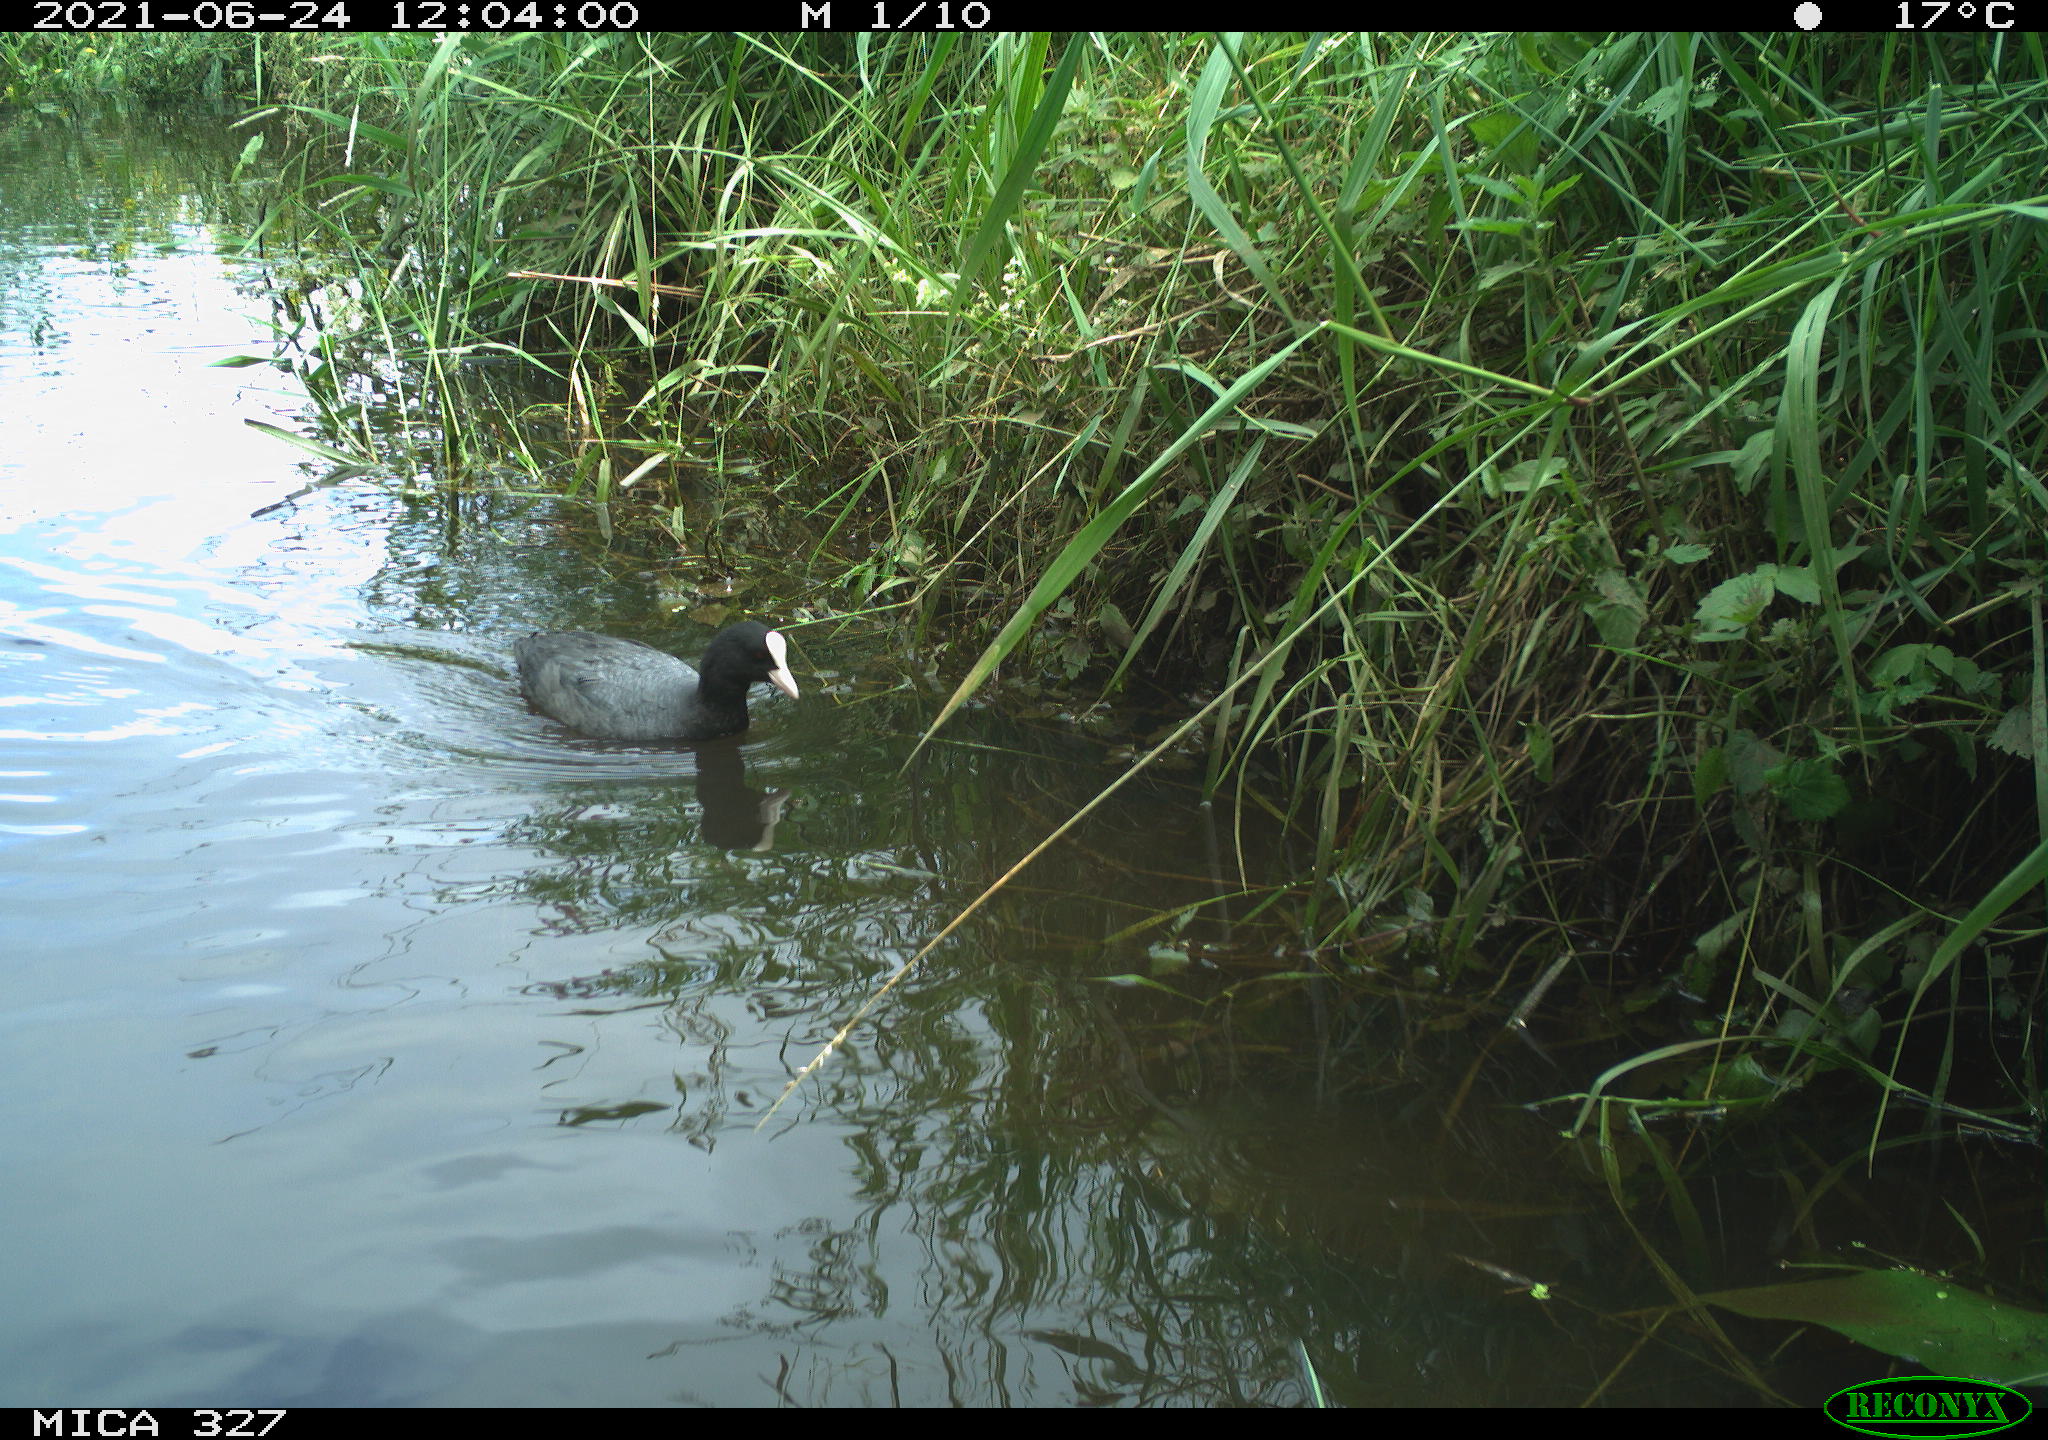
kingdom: Animalia
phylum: Chordata
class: Aves
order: Gruiformes
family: Rallidae
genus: Fulica
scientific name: Fulica atra
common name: Eurasian coot
